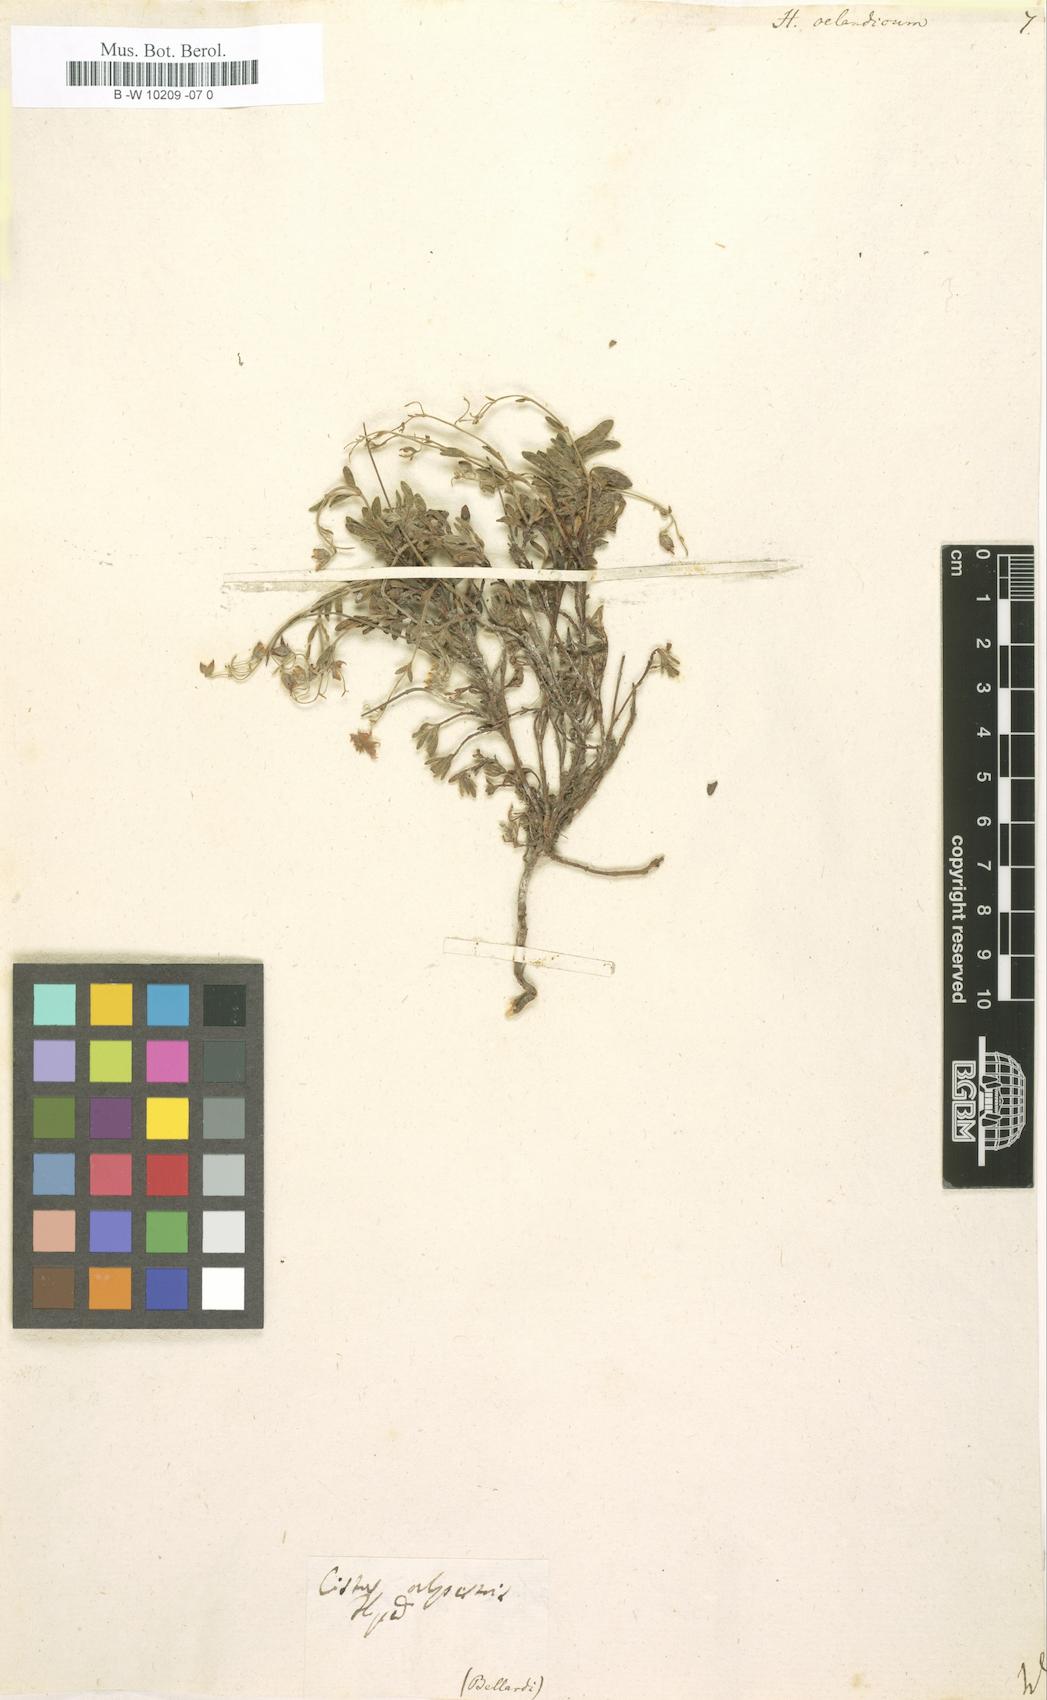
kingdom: Plantae
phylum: Tracheophyta
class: Magnoliopsida
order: Malvales
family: Cistaceae
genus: Helianthemum
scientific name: Helianthemum oelandicum
